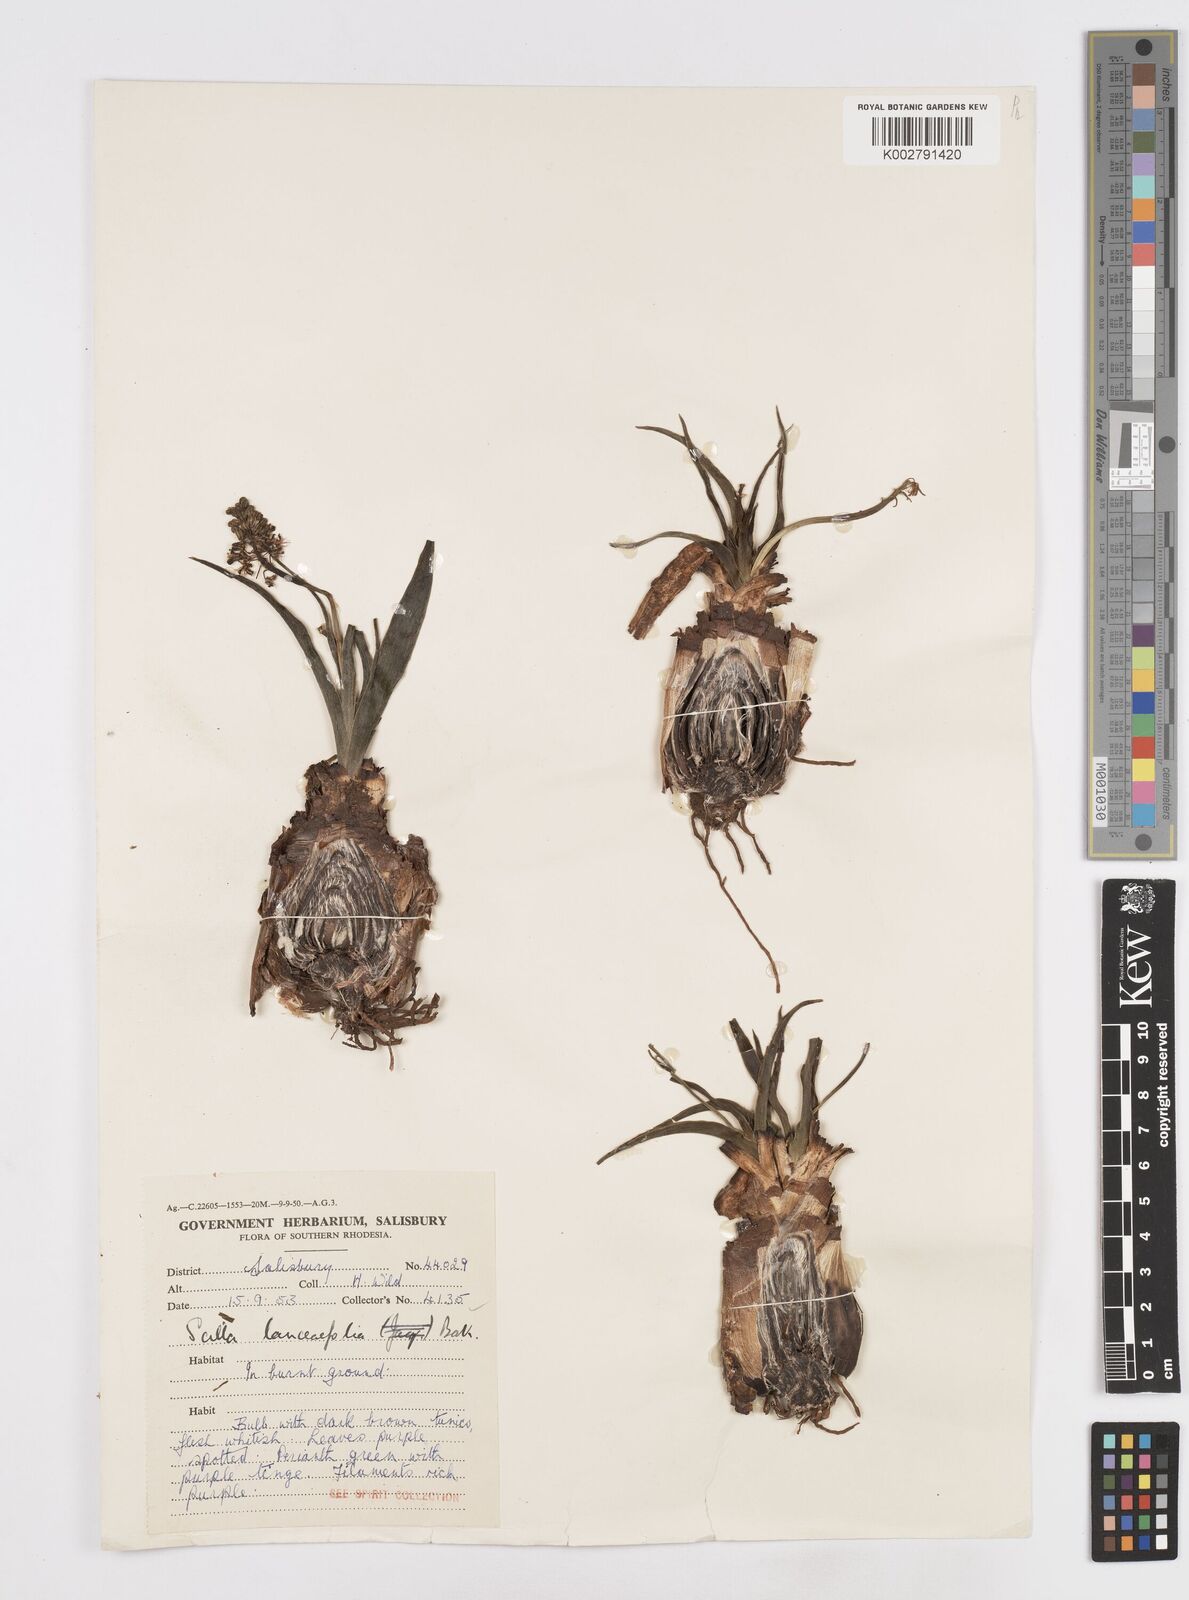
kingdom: Plantae
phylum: Tracheophyta
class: Liliopsida
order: Asparagales
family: Asparagaceae
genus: Ledebouria
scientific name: Ledebouria revoluta
